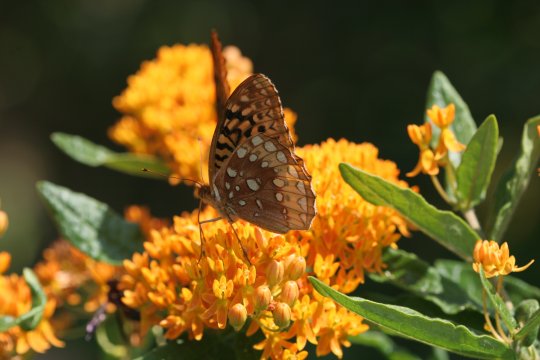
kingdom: Animalia
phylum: Arthropoda
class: Insecta
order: Lepidoptera
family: Nymphalidae
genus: Speyeria
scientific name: Speyeria cybele
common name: Great Spangled Fritillary
